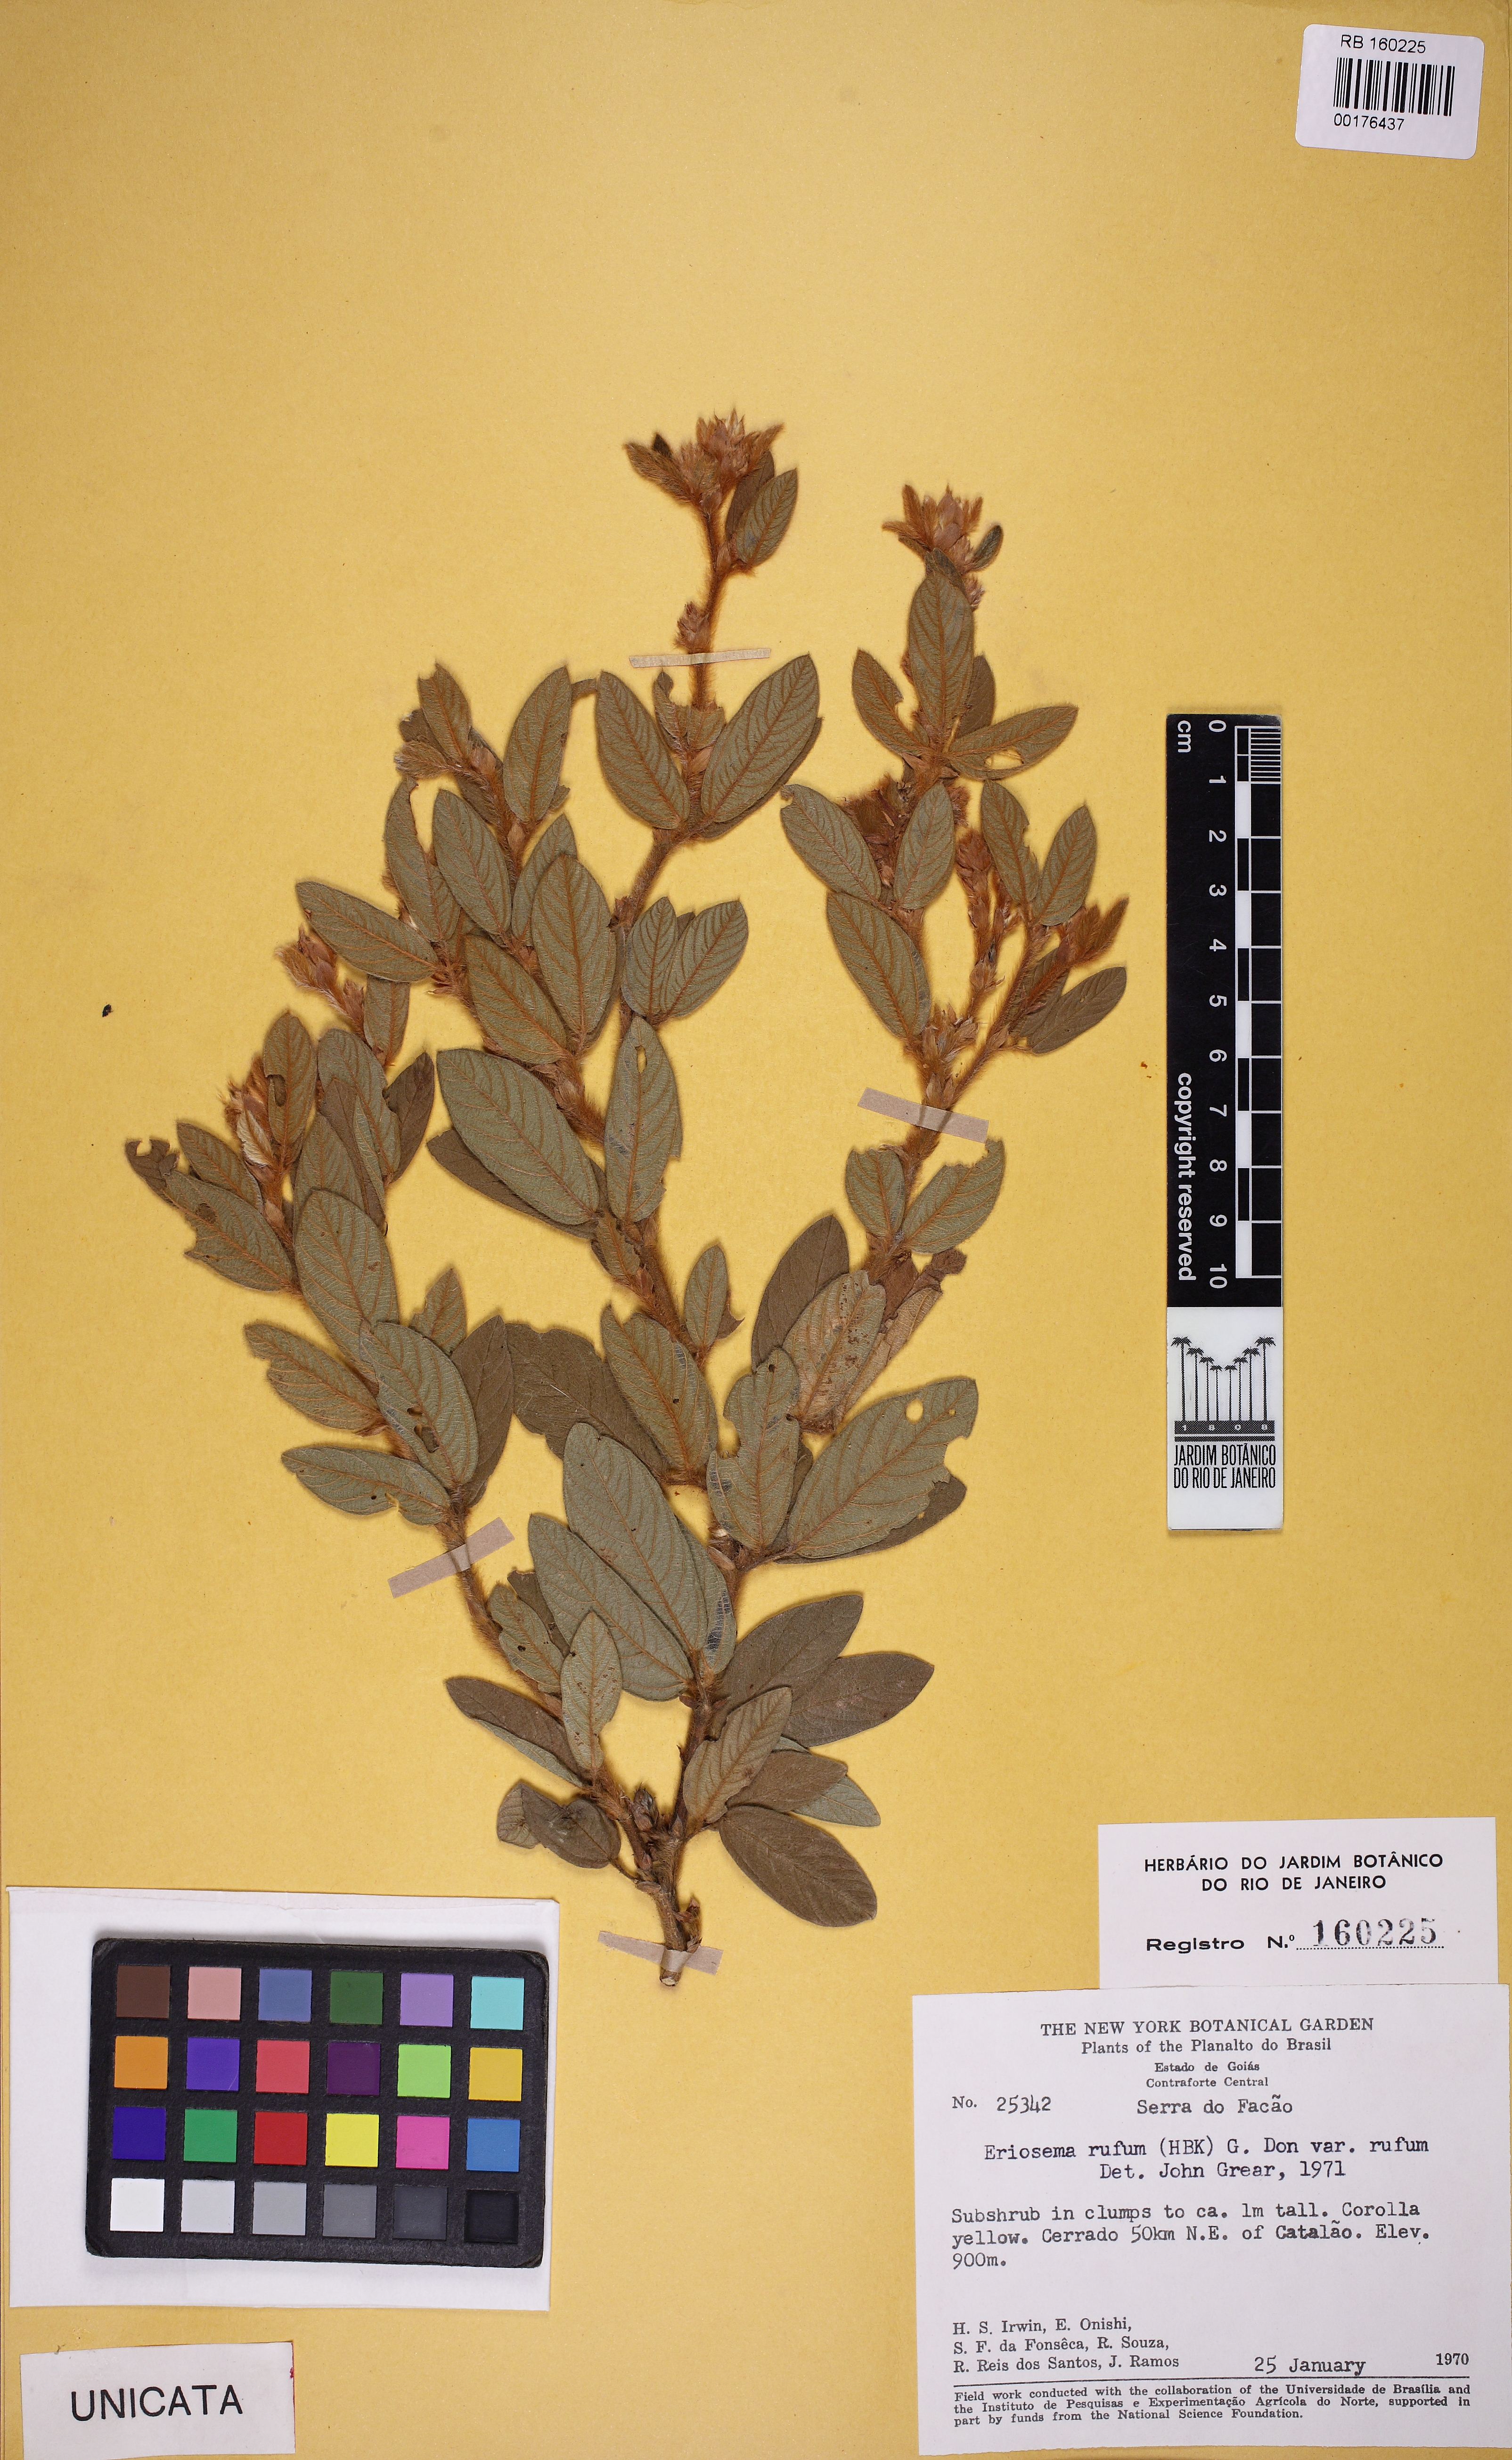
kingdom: Plantae
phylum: Tracheophyta
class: Magnoliopsida
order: Fabales
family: Fabaceae
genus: Eriosema
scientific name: Eriosema rufum
